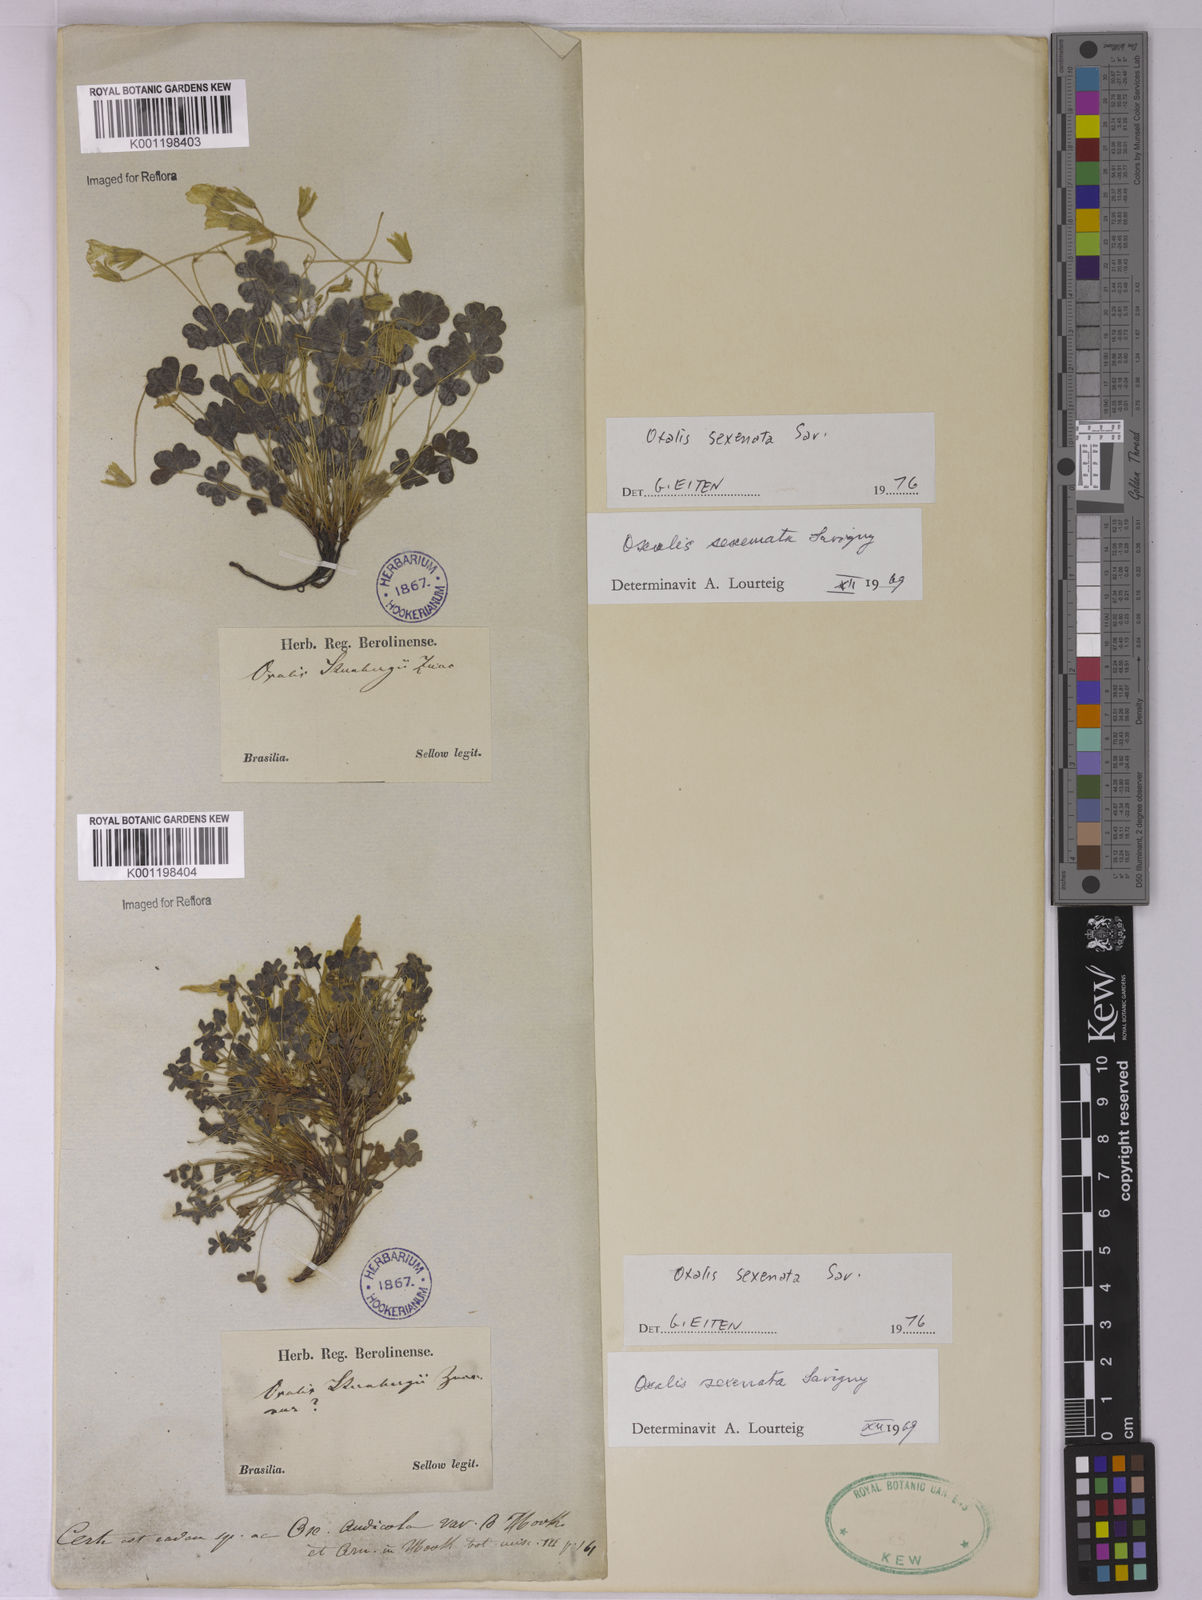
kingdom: Plantae
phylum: Tracheophyta
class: Magnoliopsida
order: Oxalidales
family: Oxalidaceae
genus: Oxalis
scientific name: Oxalis conorrhiza
